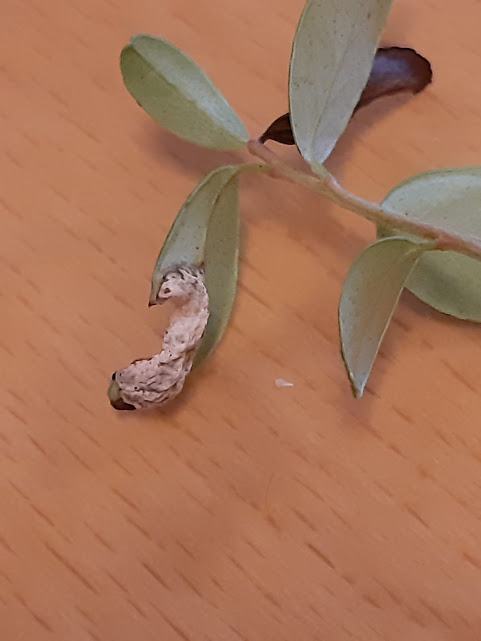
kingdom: Fungi
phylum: Basidiomycota
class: Exobasidiomycetes
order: Exobasidiales
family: Exobasidiaceae
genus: Exobasidium
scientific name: Exobasidium vaccinii
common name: tyttebærblad-bøllesvamp
